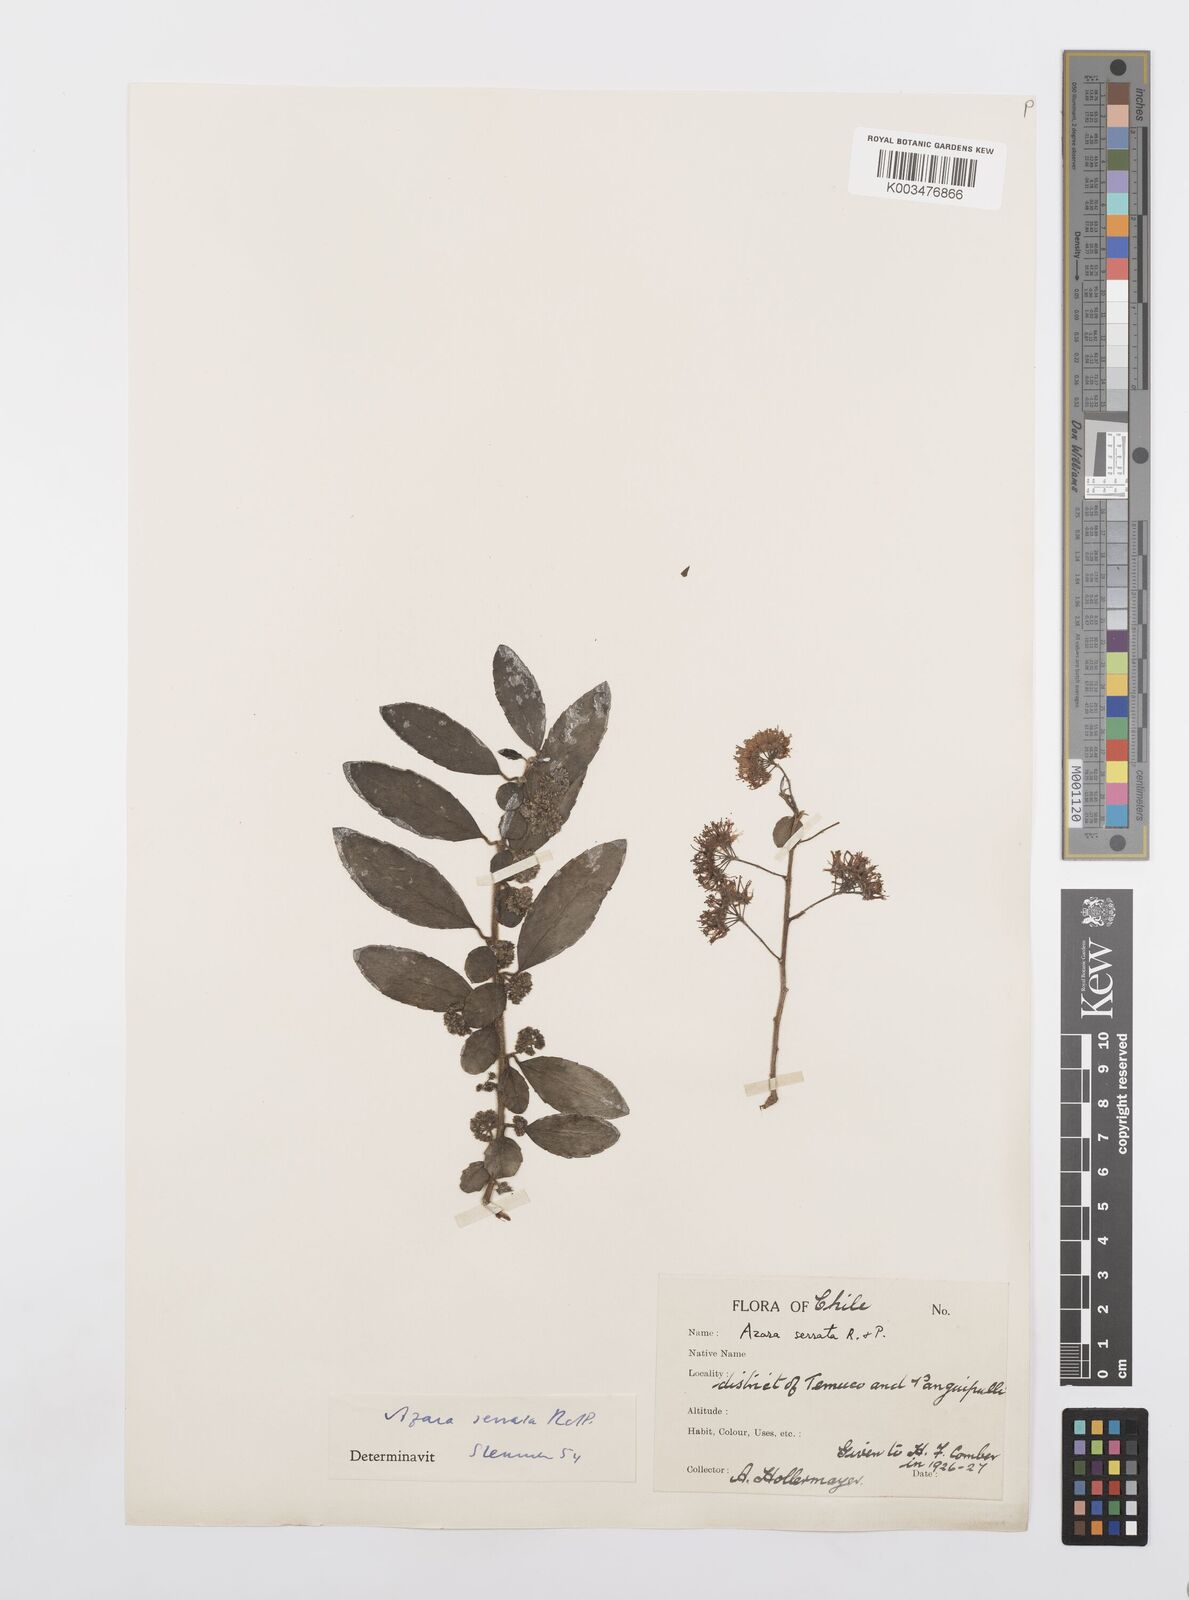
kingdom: Plantae
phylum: Tracheophyta
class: Magnoliopsida
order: Malpighiales
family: Salicaceae
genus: Azara
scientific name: Azara serrata
